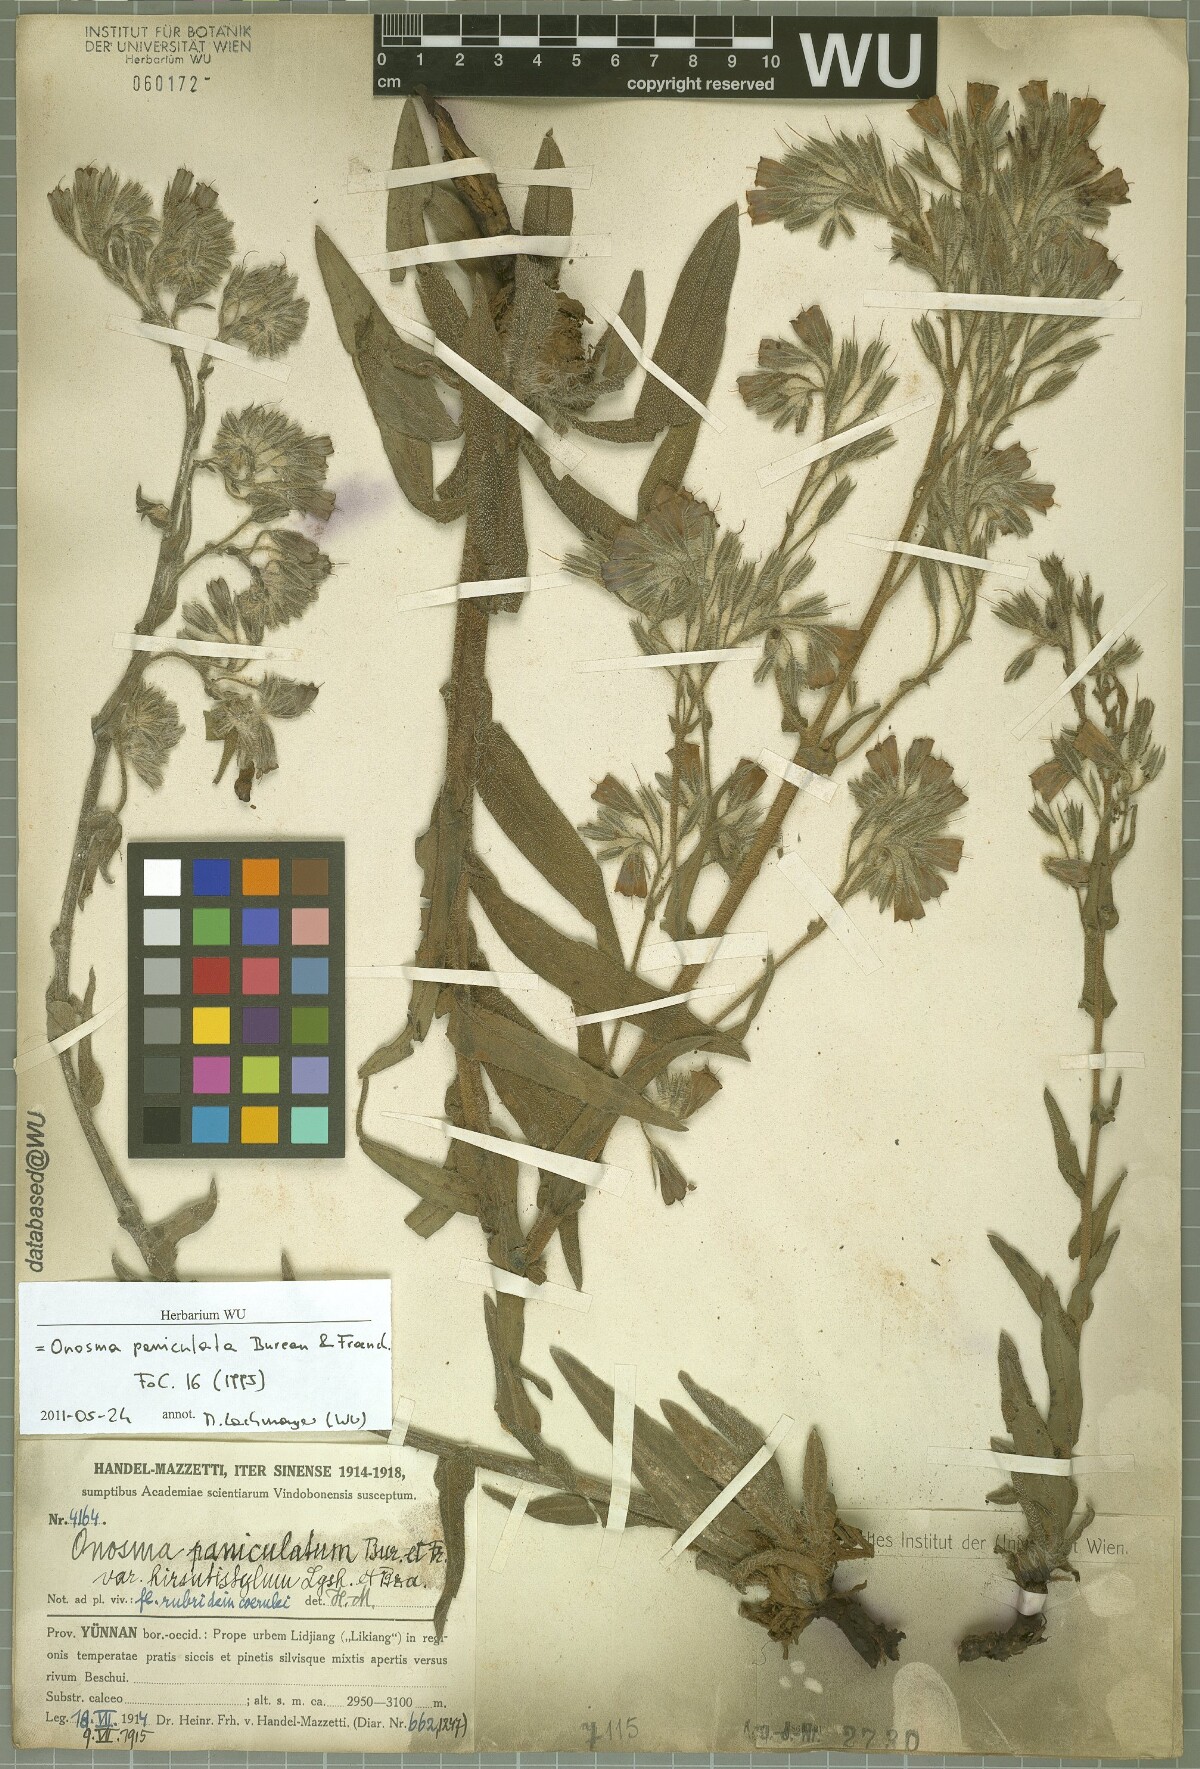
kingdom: Plantae
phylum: Tracheophyta
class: Magnoliopsida
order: Boraginales
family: Boraginaceae
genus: Maharanga
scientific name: Maharanga paniculata
